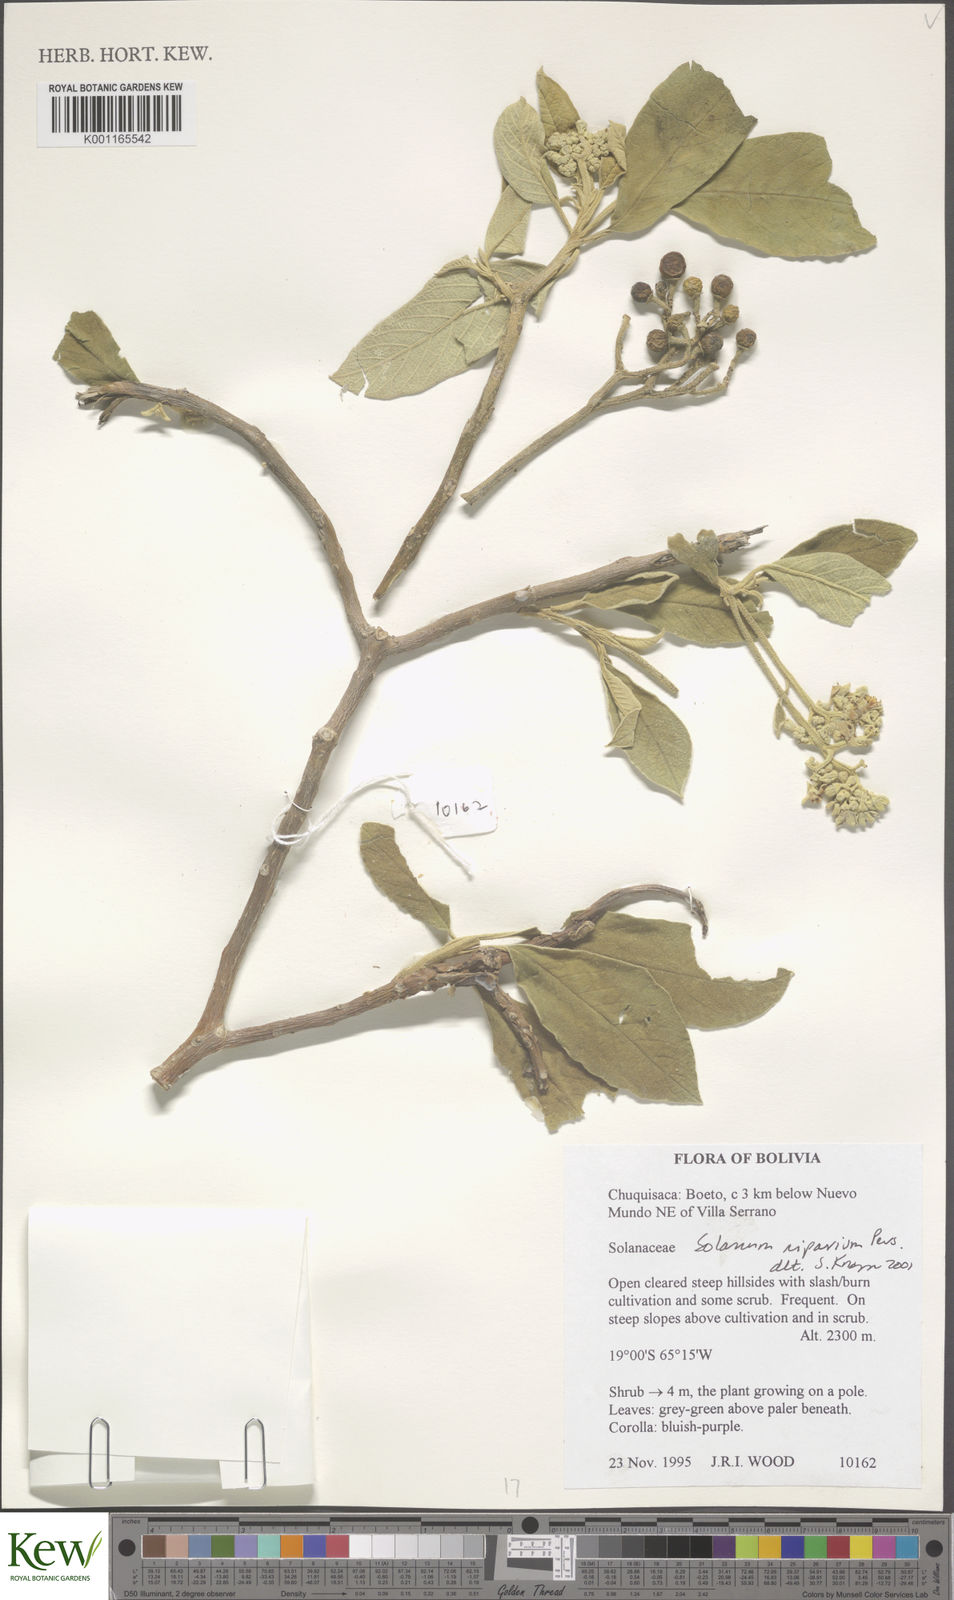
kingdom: Plantae
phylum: Tracheophyta
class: Magnoliopsida
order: Solanales
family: Solanaceae
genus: Solanum
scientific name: Solanum riparium
